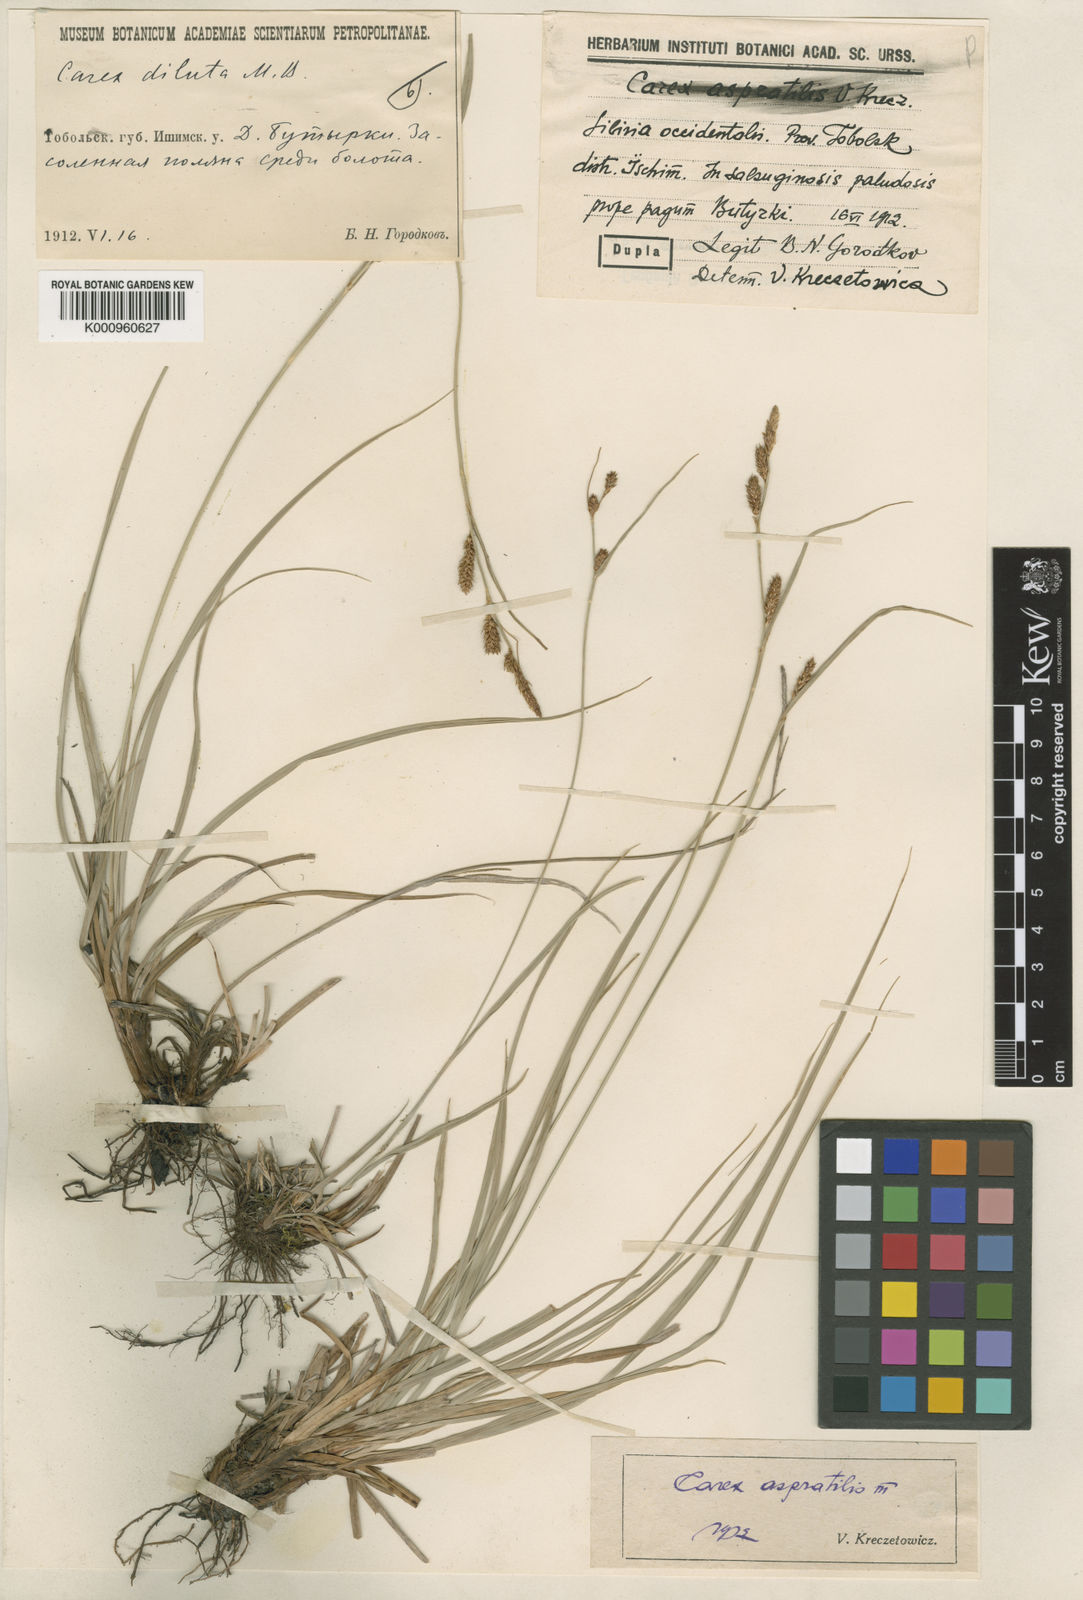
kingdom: Plantae
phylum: Tracheophyta
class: Liliopsida
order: Poales
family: Cyperaceae
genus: Carex
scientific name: Carex diluta
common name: Sedge
